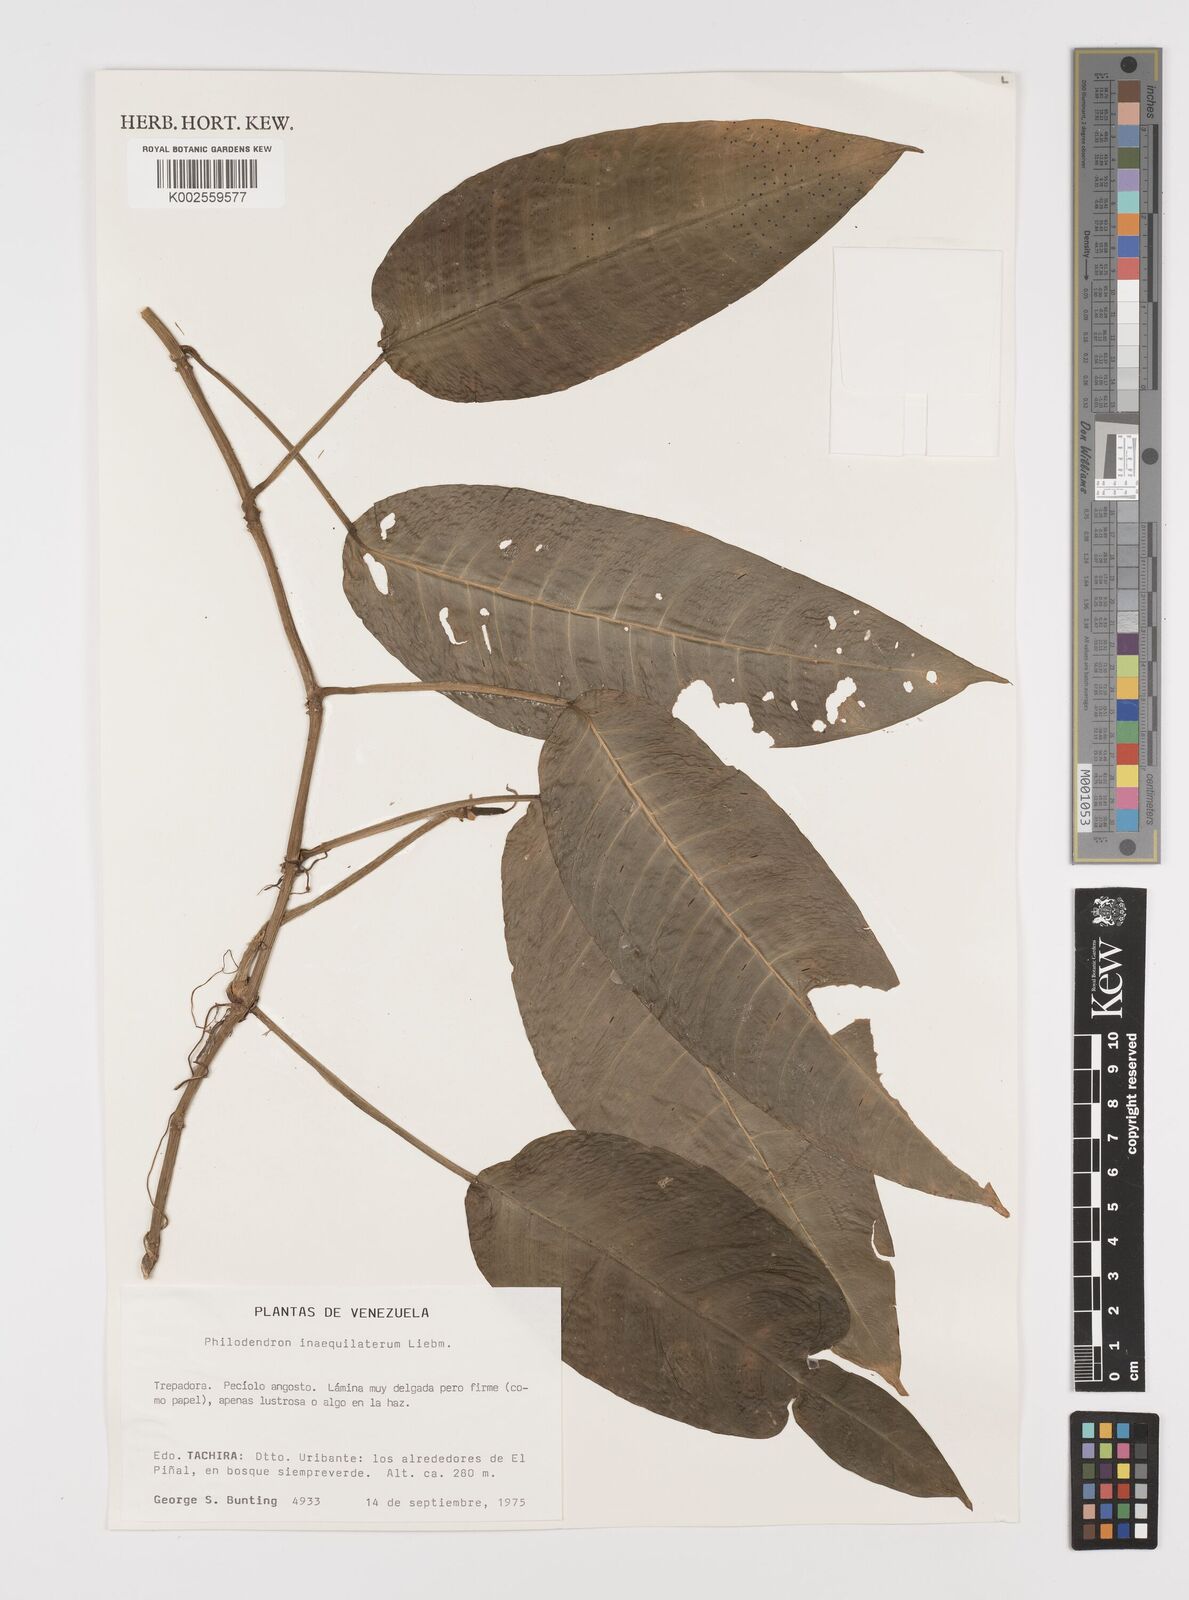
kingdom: Plantae
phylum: Tracheophyta
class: Liliopsida
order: Alismatales
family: Araceae
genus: Philodendron
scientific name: Philodendron inaequilaterum
